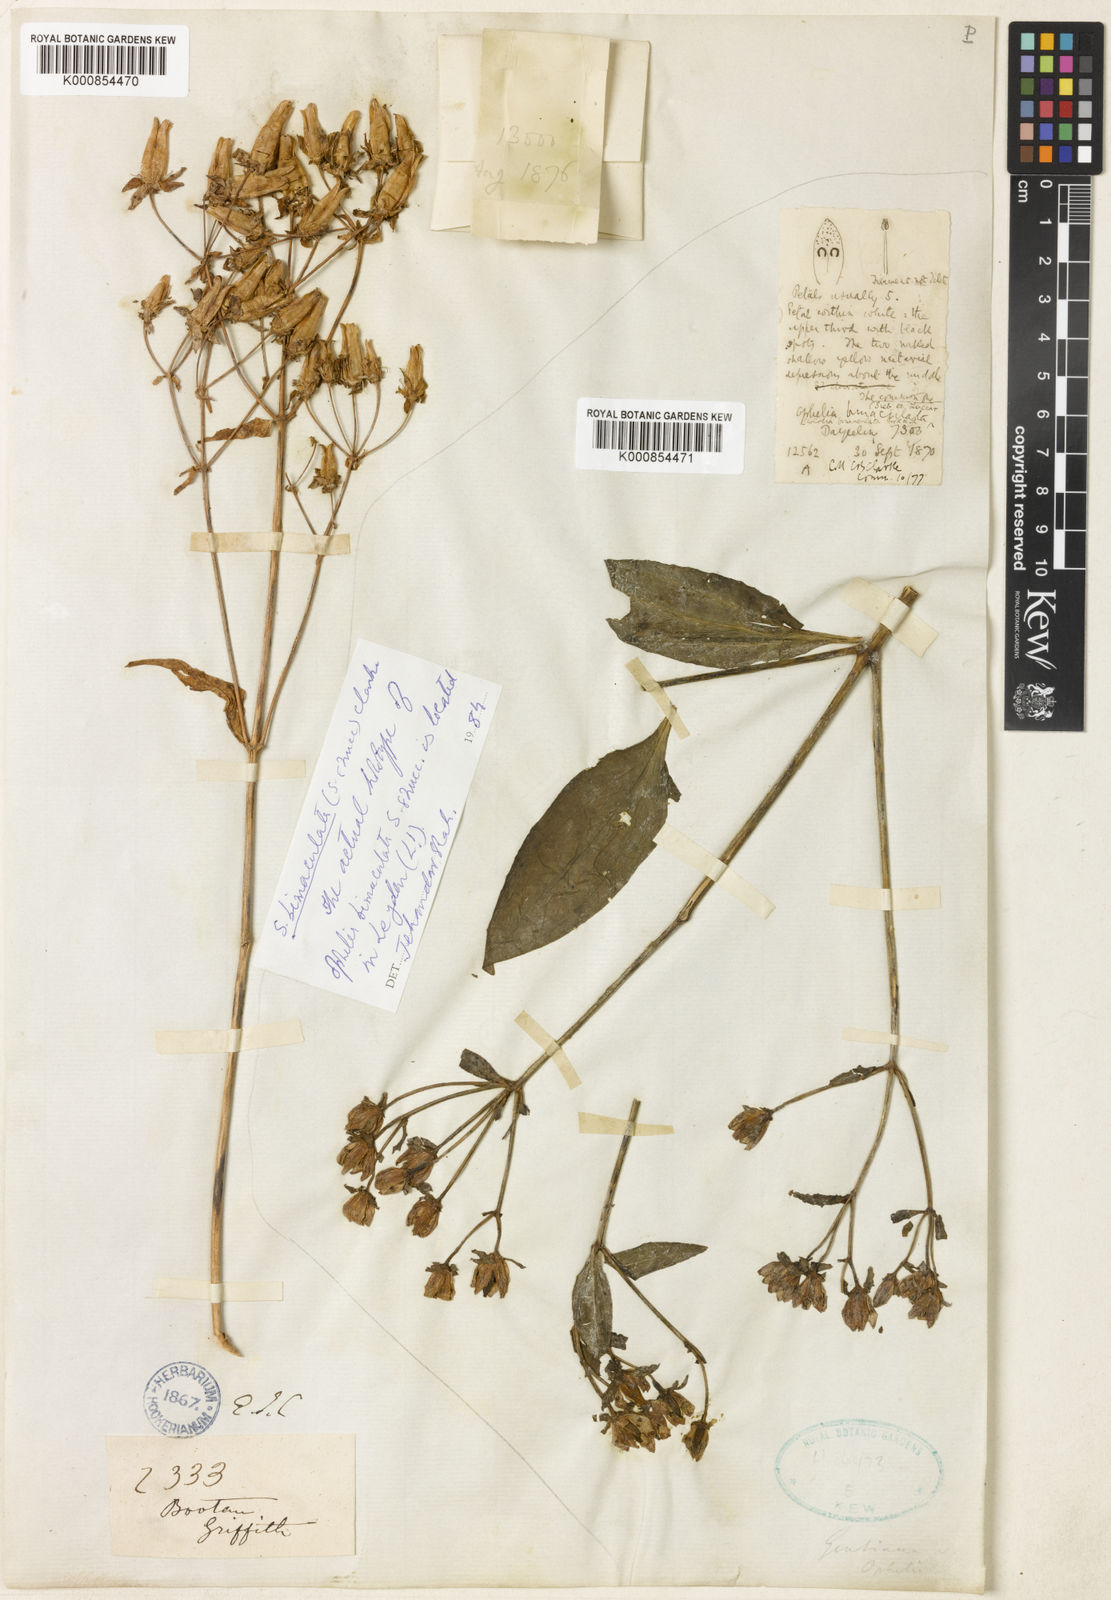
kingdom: Plantae
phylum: Tracheophyta
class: Magnoliopsida
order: Gentianales
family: Gentianaceae
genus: Swertia
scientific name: Swertia bimaculata
